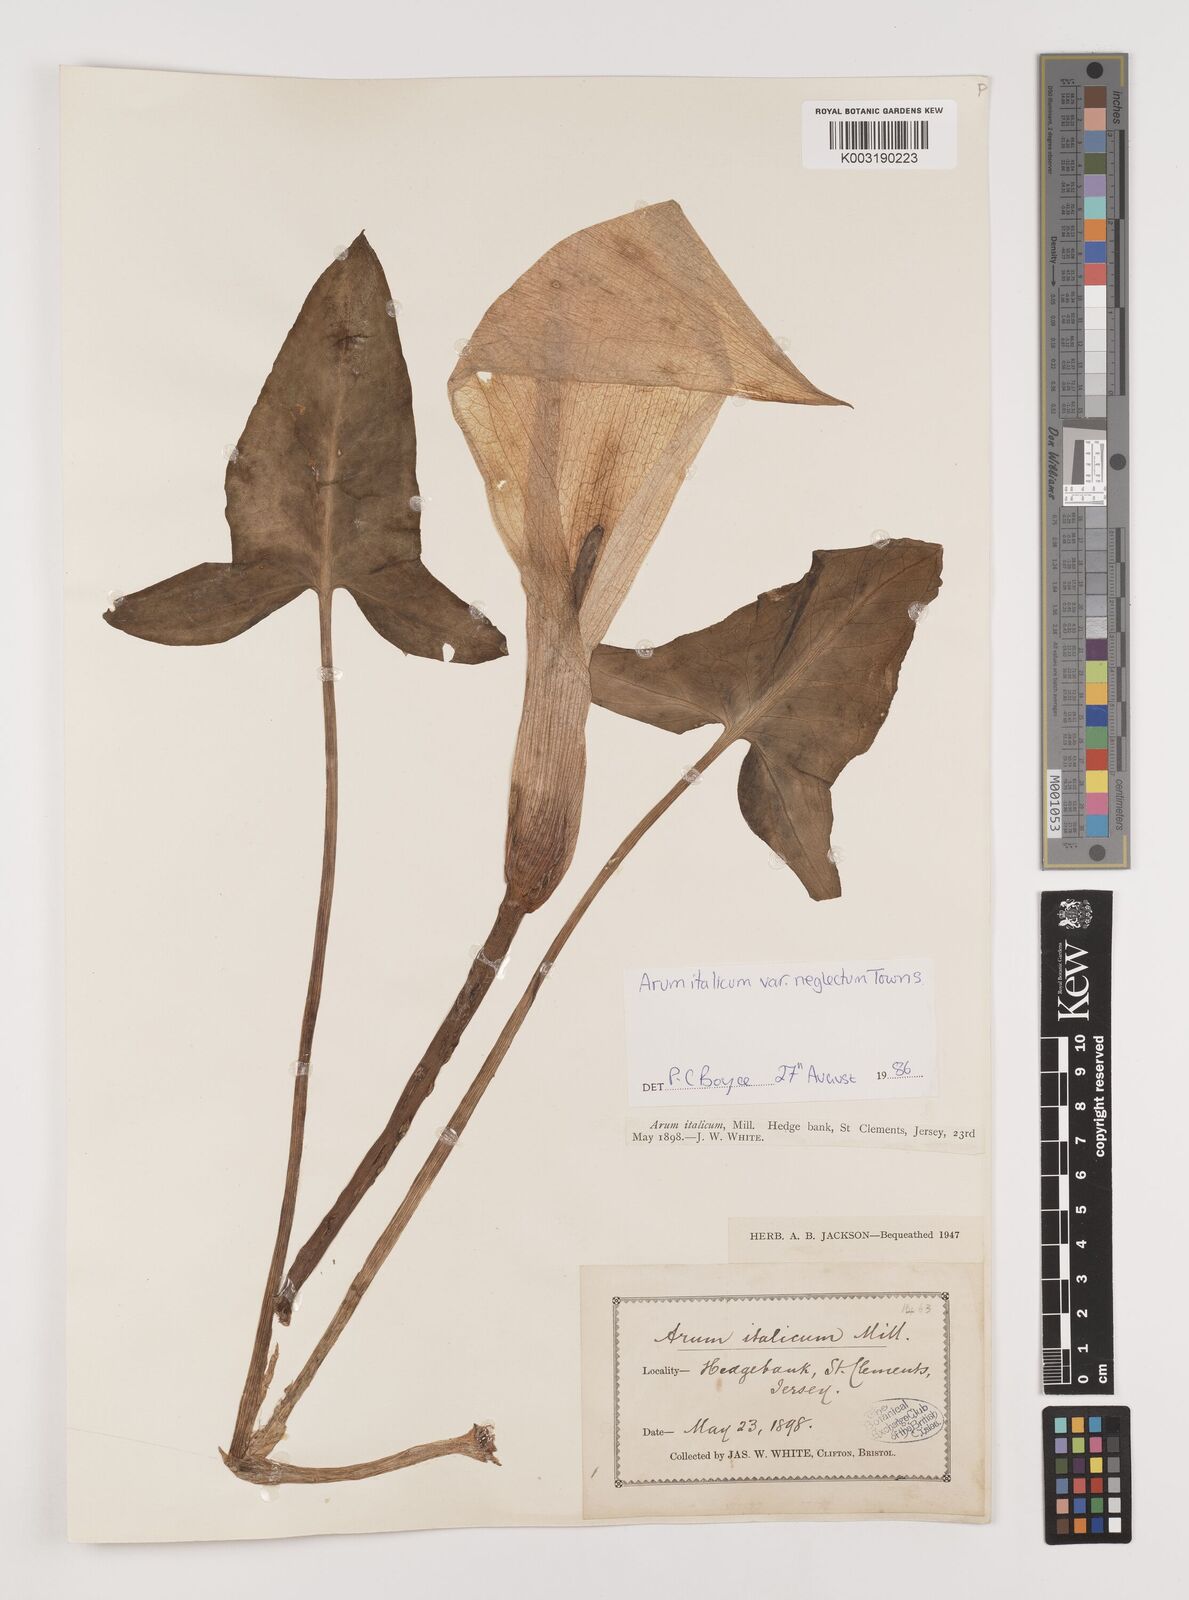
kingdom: Plantae
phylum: Tracheophyta
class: Liliopsida
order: Alismatales
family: Araceae
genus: Arum
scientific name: Arum italicum
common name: Italian lords-and-ladies
